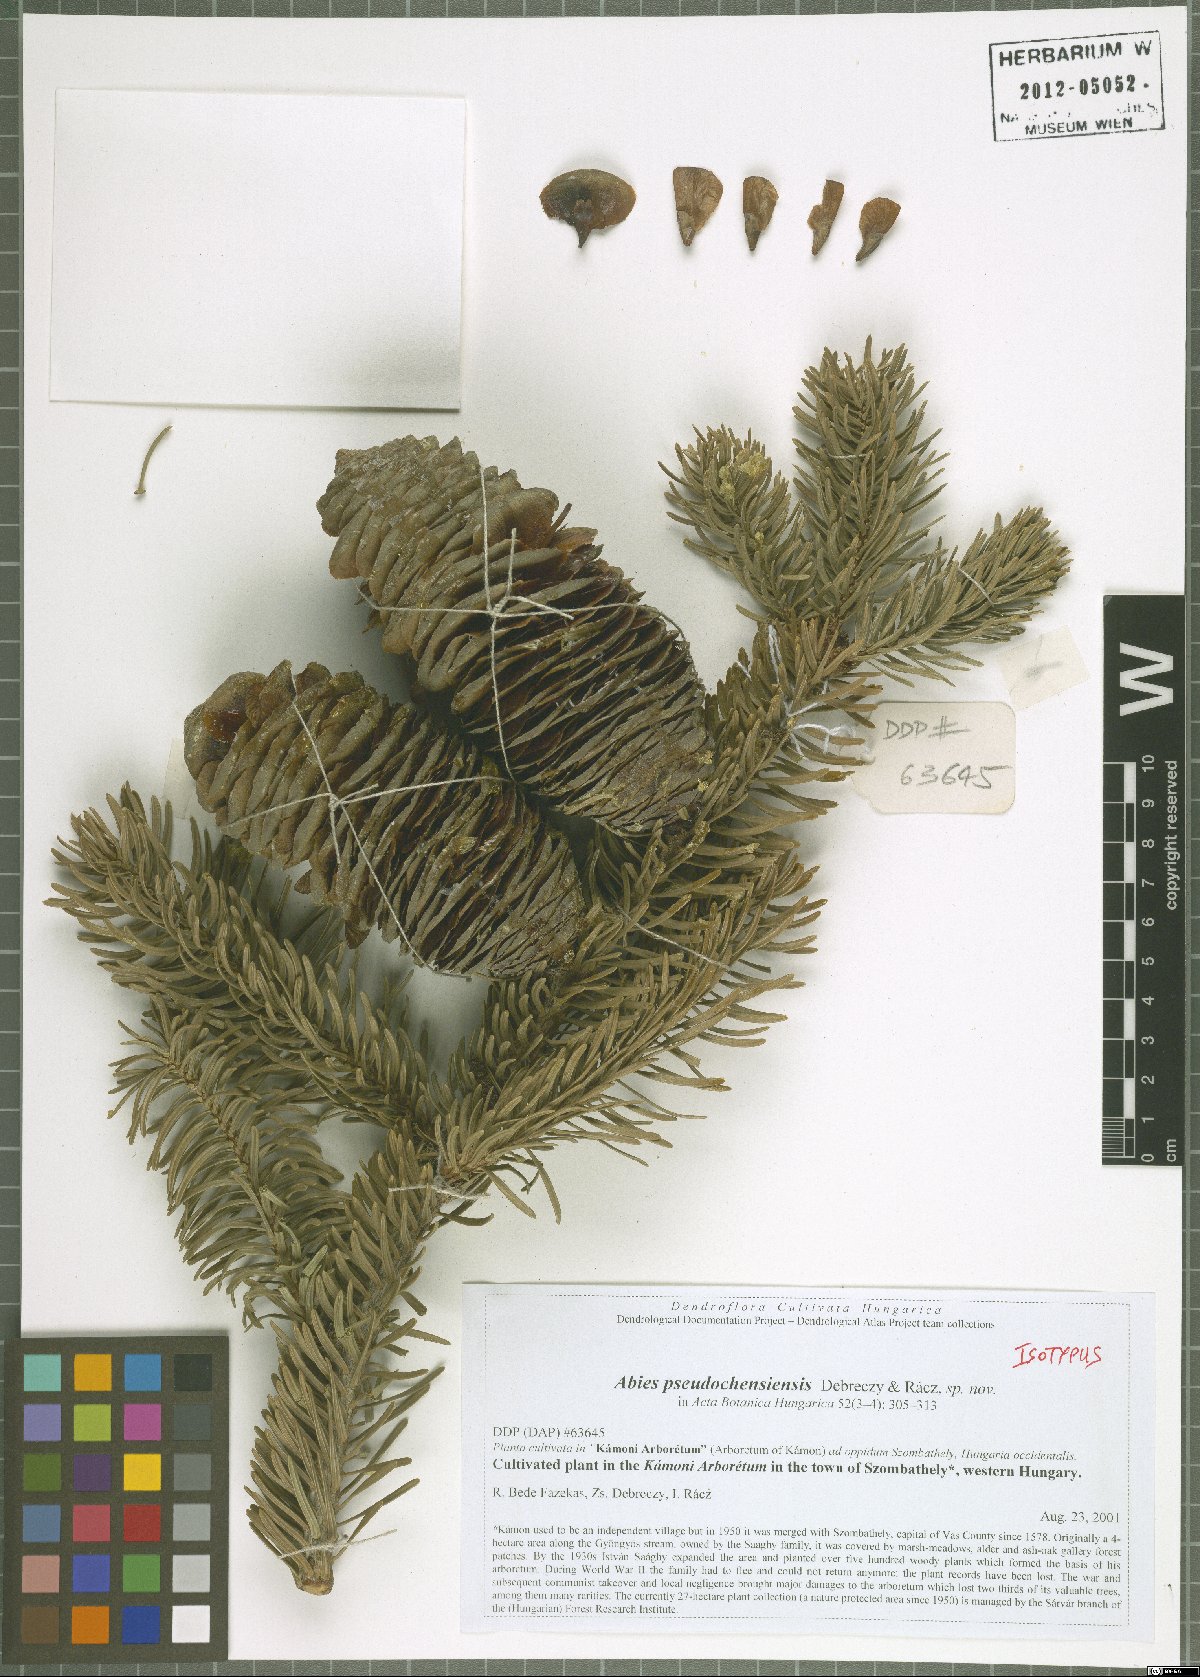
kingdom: Plantae
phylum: Tracheophyta
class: Pinopsida
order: Pinales
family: Pinaceae
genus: Abies
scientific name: Abies pindrow
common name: Pindrow fir
